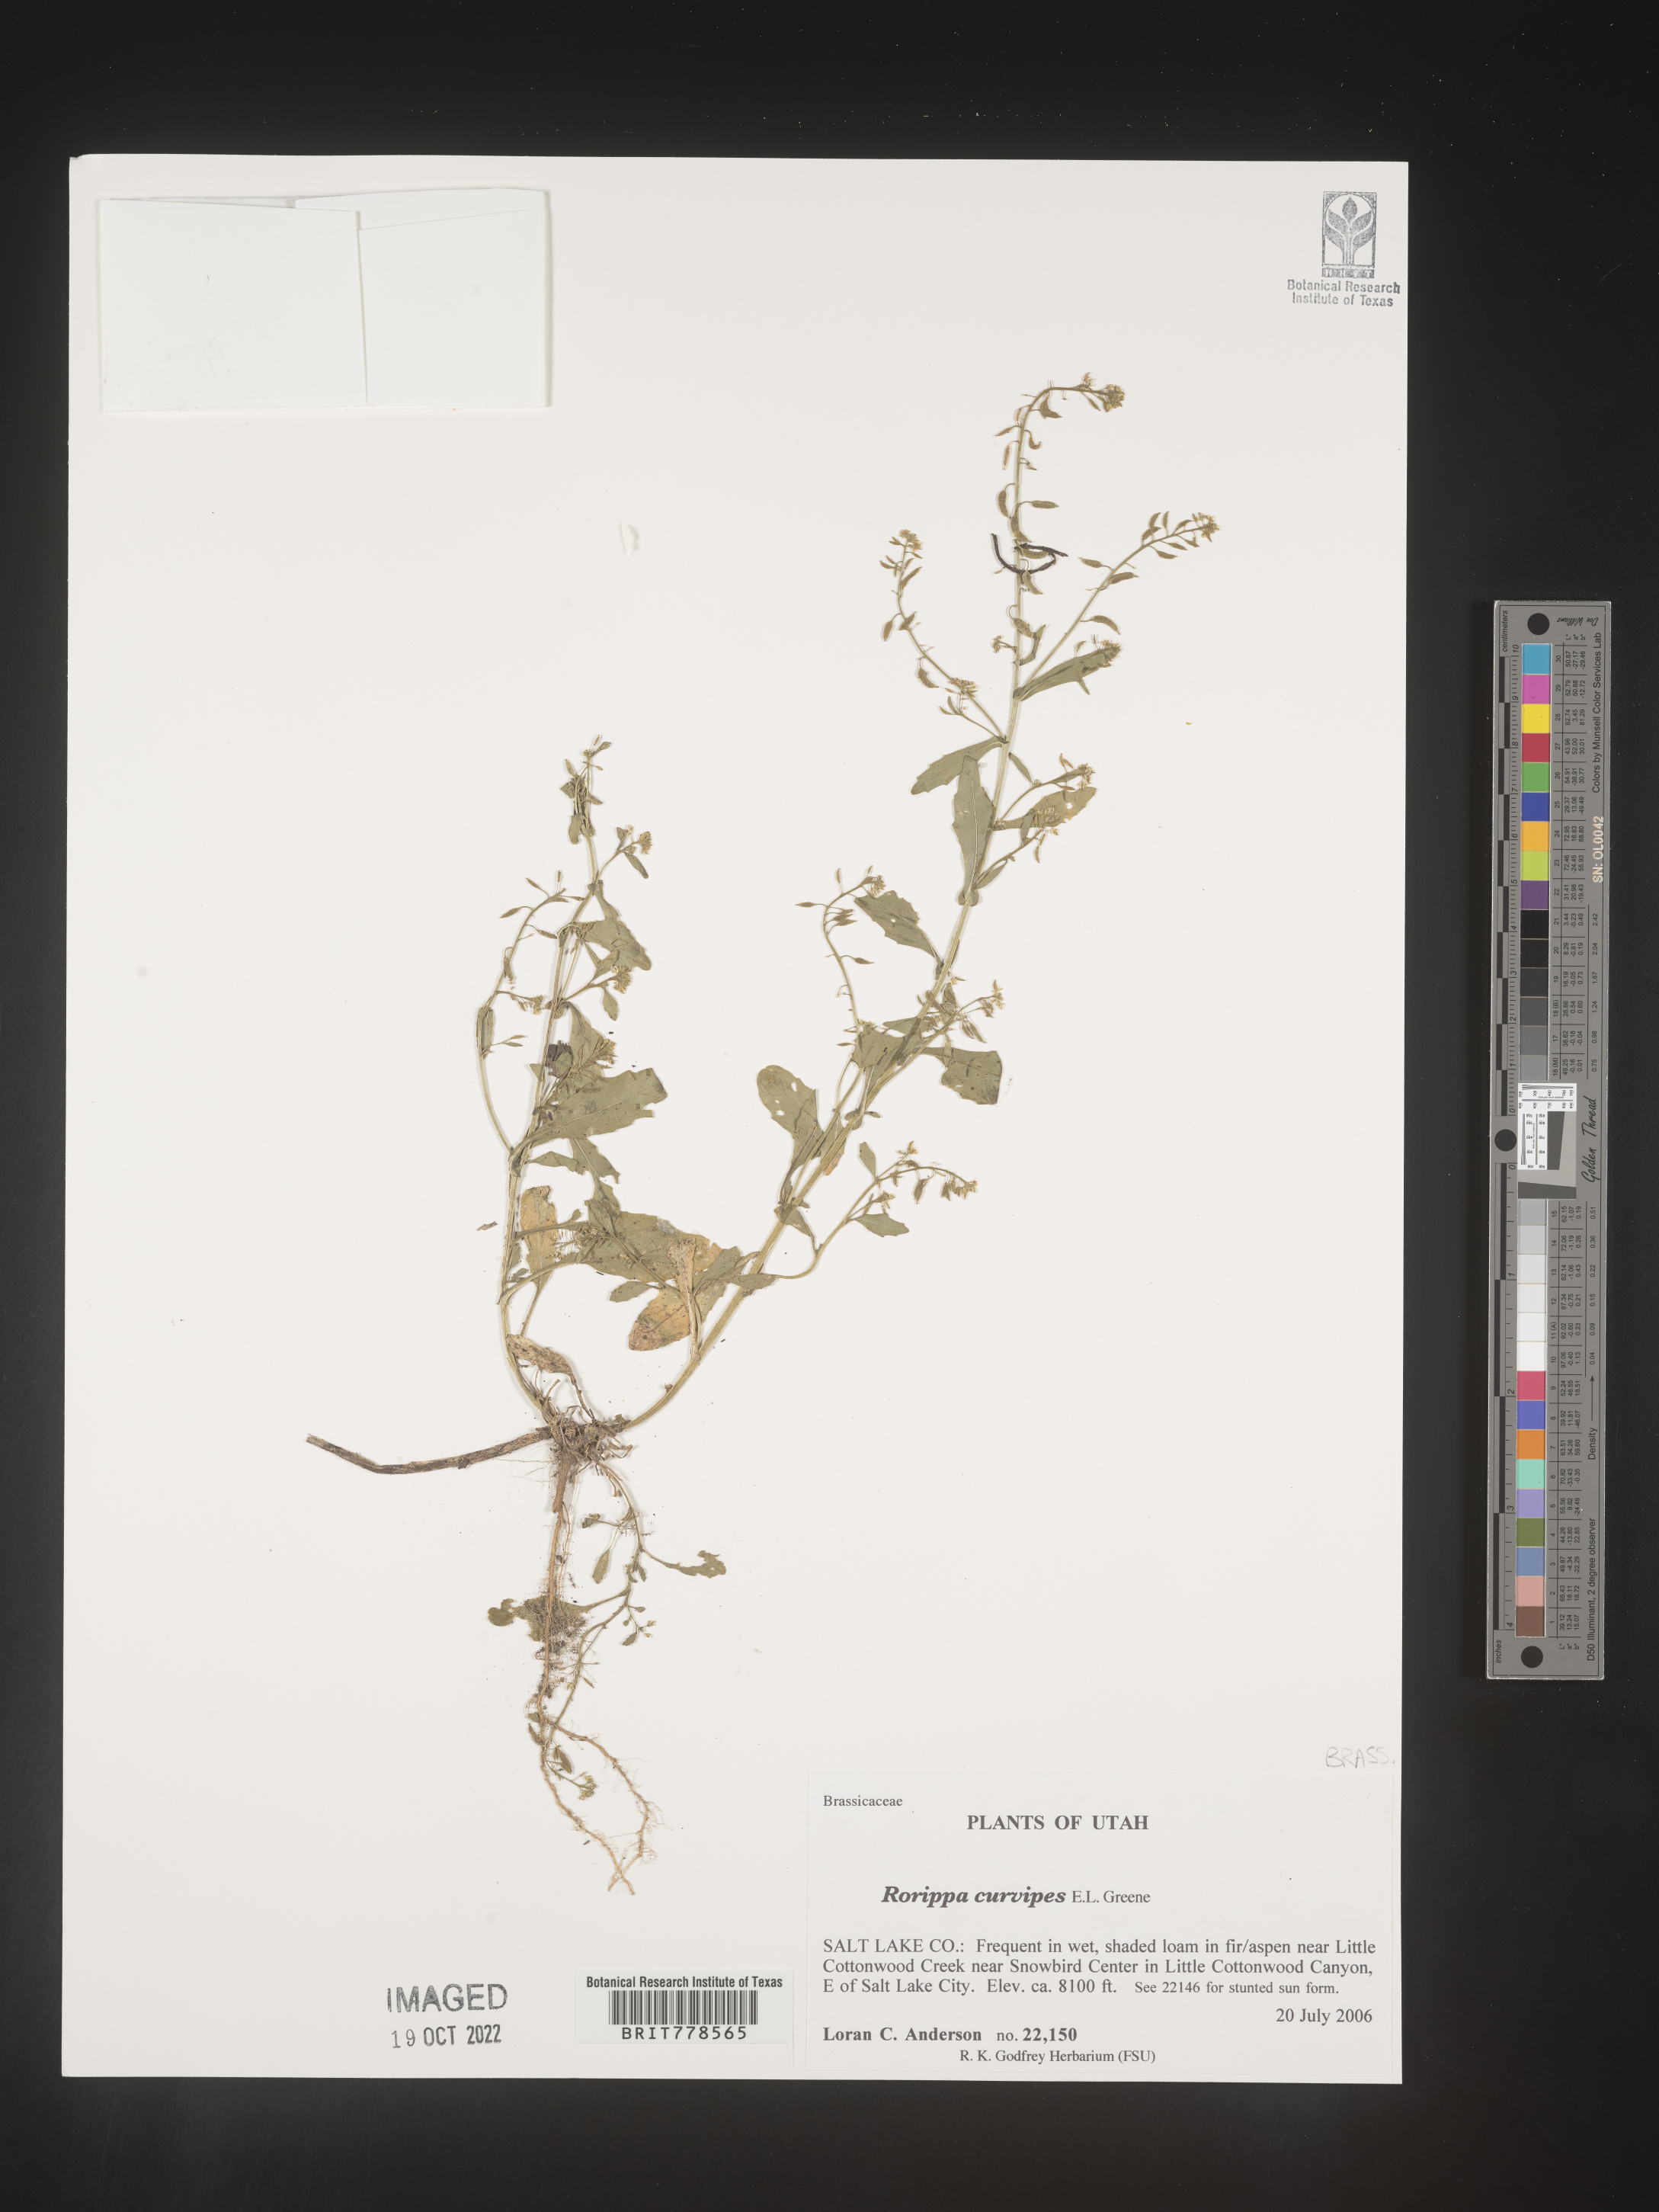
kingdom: Plantae
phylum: Tracheophyta
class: Magnoliopsida
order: Brassicales
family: Brassicaceae
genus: Rorippa
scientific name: Rorippa
